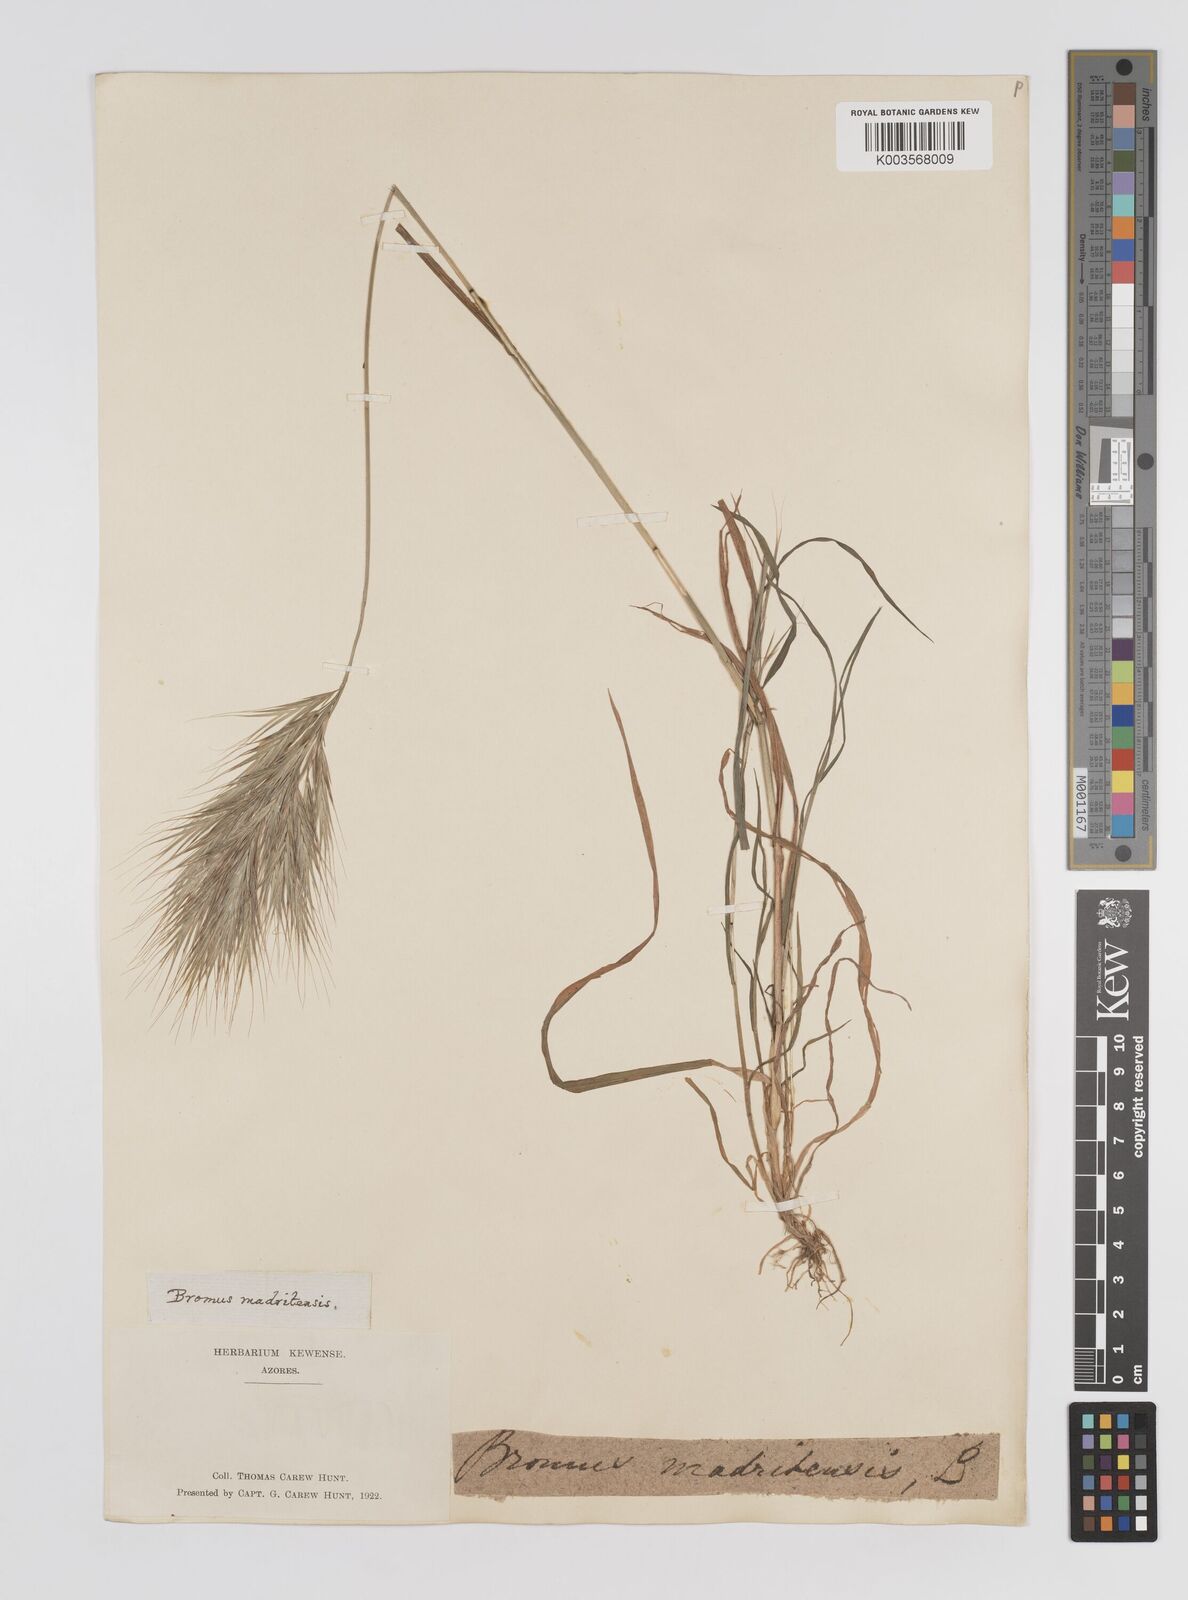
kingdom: Plantae
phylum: Tracheophyta
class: Liliopsida
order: Poales
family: Poaceae
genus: Bromus
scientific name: Bromus
